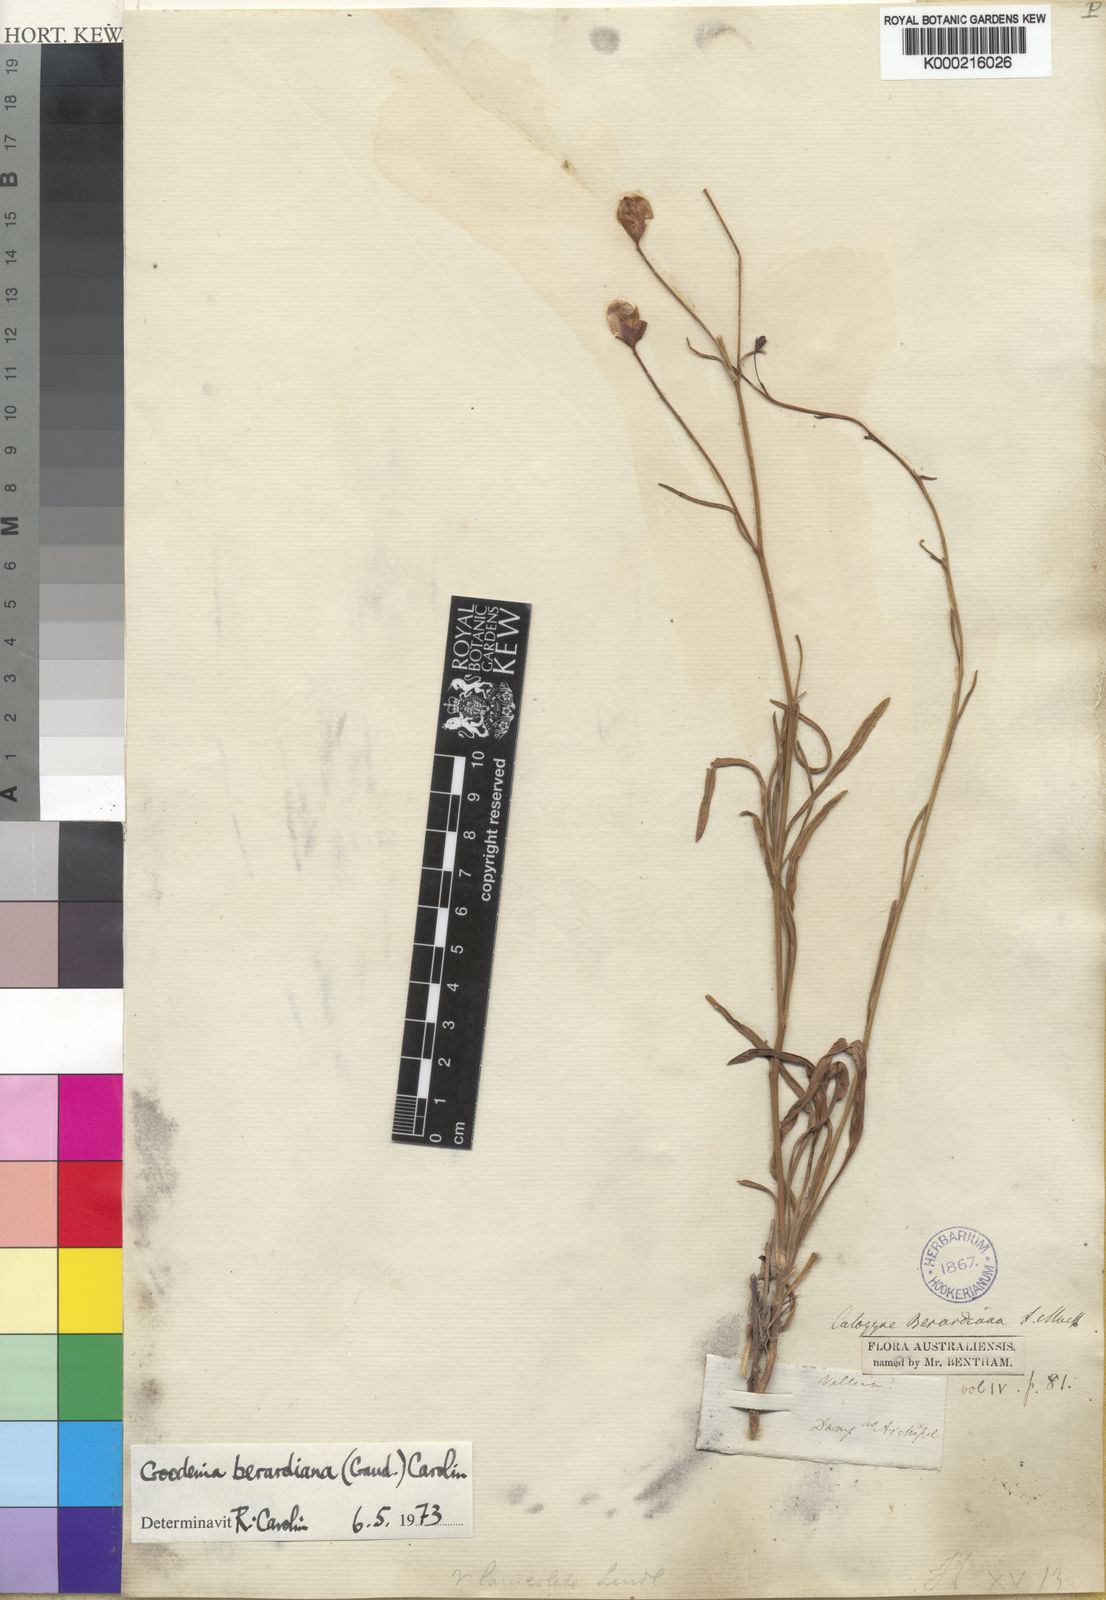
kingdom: Plantae
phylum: Tracheophyta
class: Magnoliopsida
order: Asterales
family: Goodeniaceae
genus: Goodenia
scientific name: Goodenia berardiana
